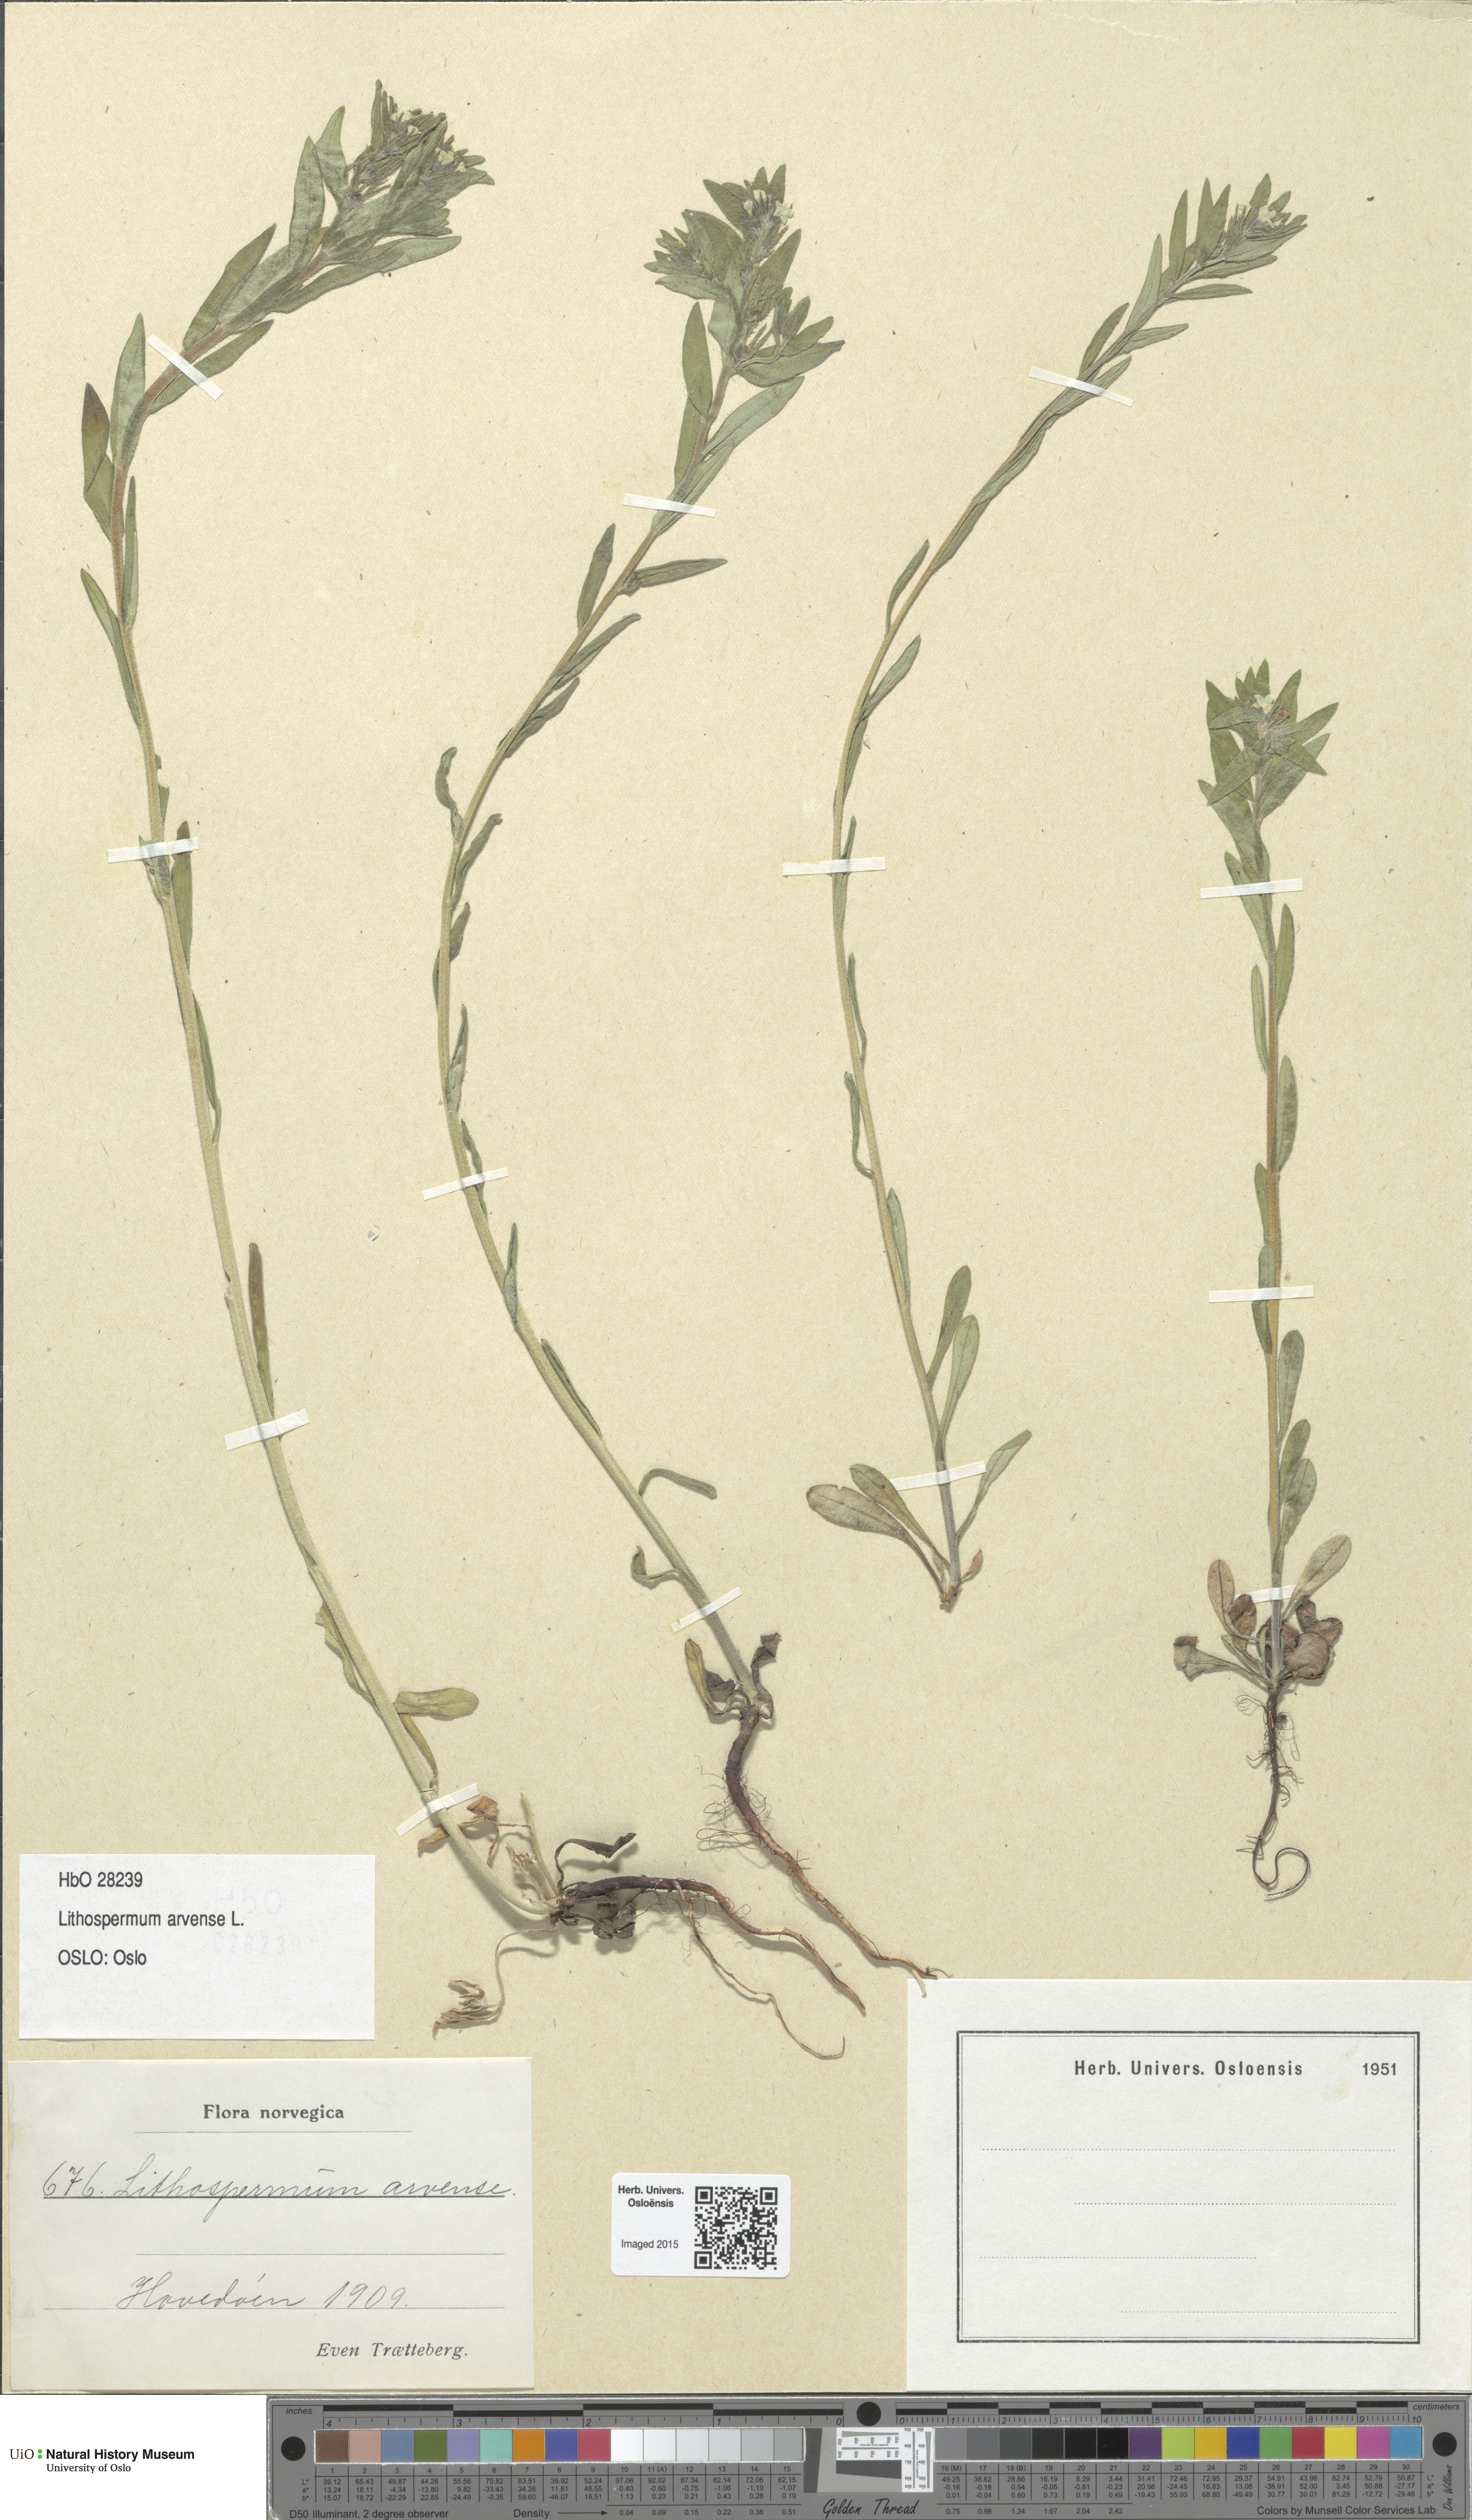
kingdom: Plantae
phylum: Tracheophyta
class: Magnoliopsida
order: Boraginales
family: Boraginaceae
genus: Buglossoides
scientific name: Buglossoides arvensis
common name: Corn gromwell
